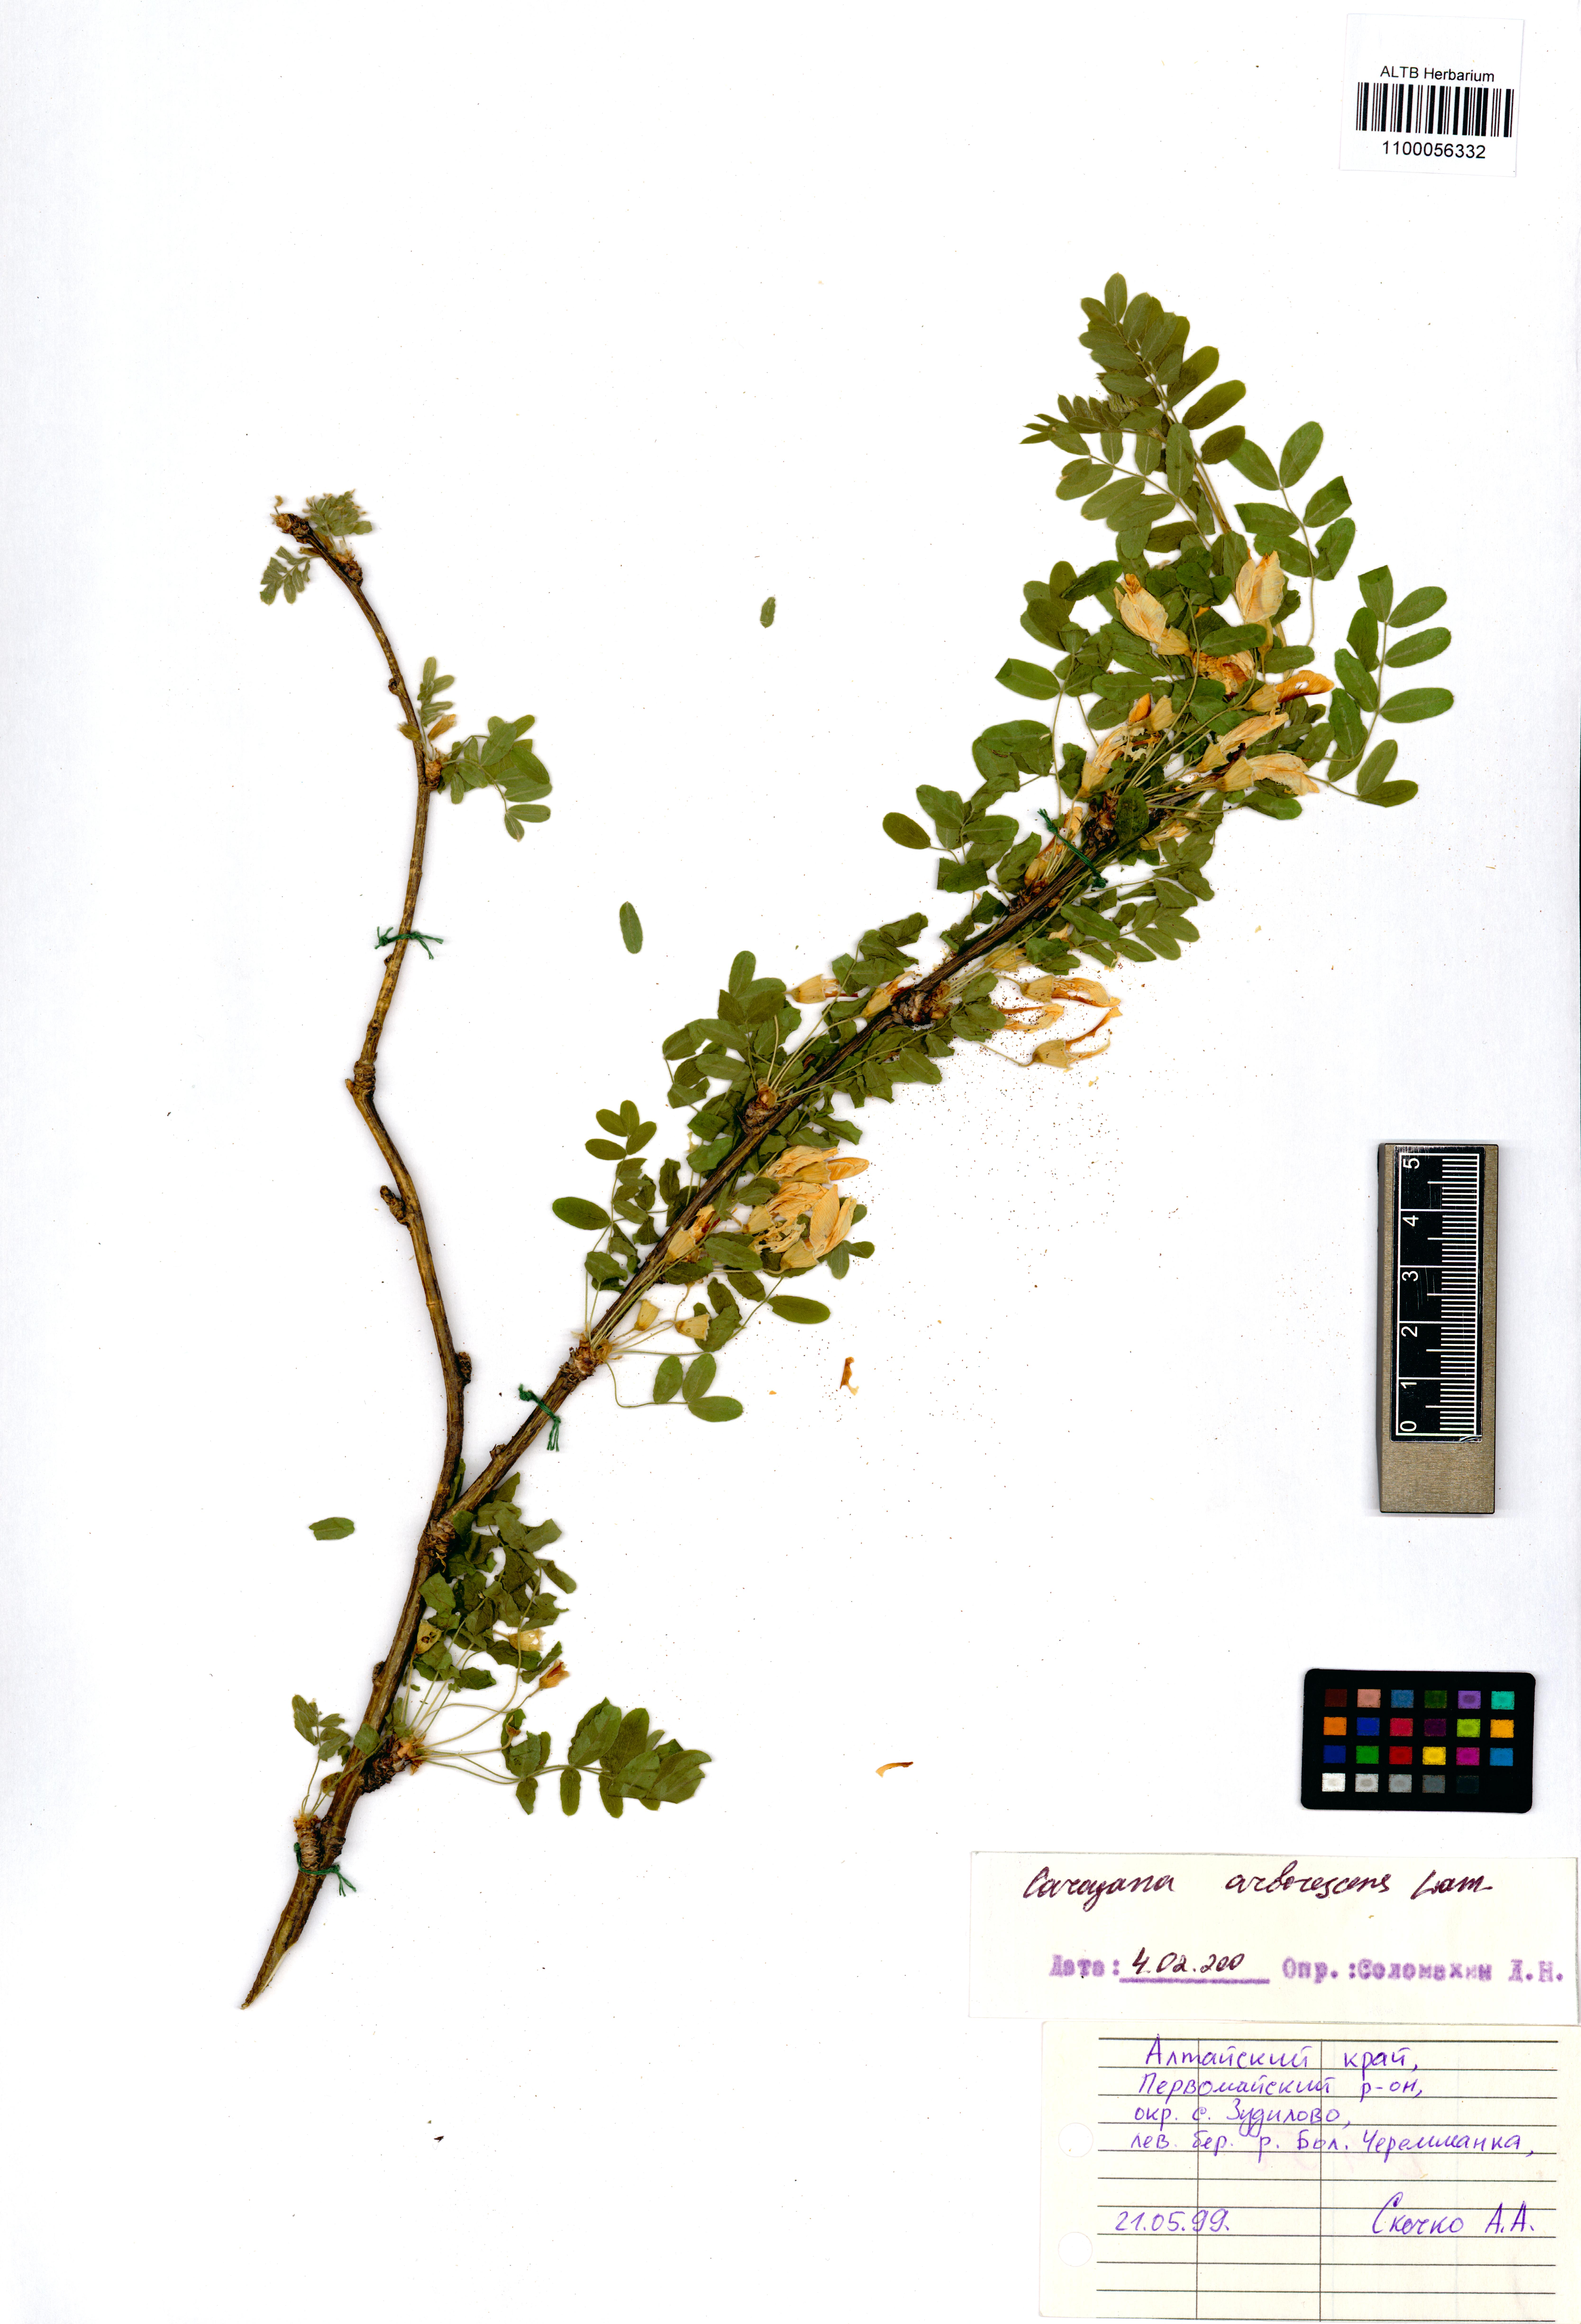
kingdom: Plantae
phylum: Tracheophyta
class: Magnoliopsida
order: Fabales
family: Fabaceae
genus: Caragana
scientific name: Caragana arborescens
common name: Siberian peashrub
